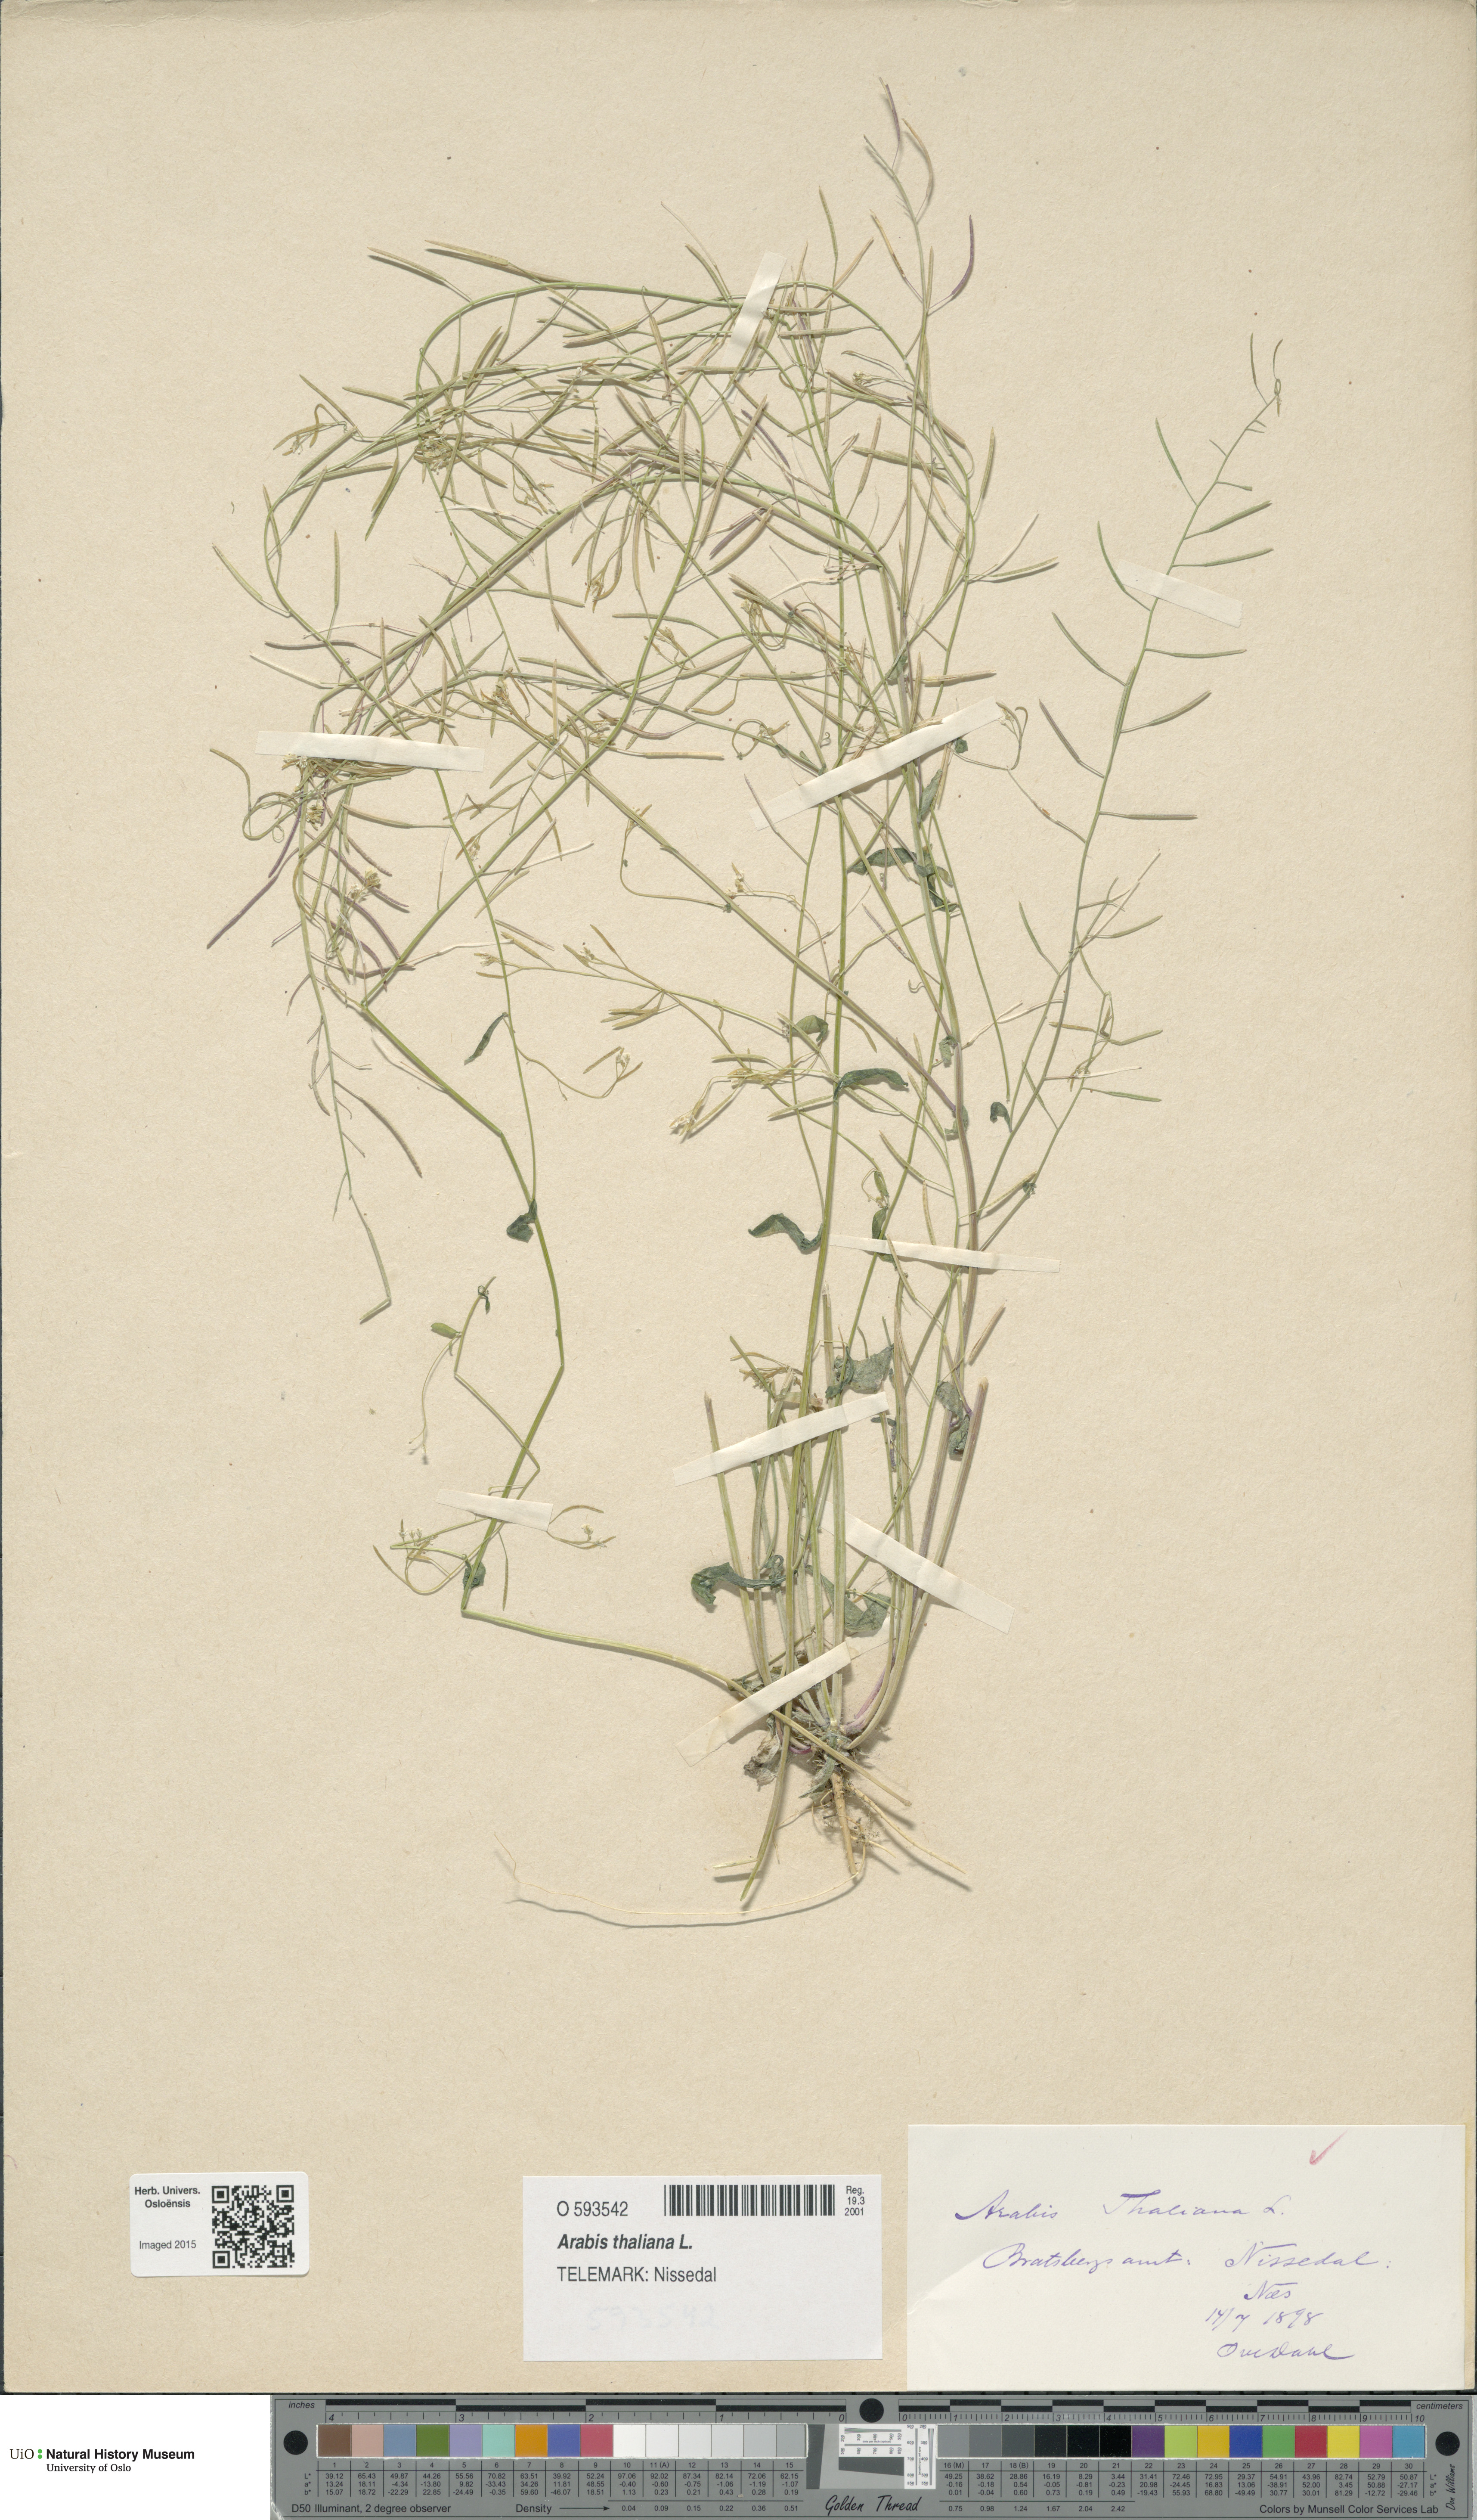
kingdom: Plantae
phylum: Tracheophyta
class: Magnoliopsida
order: Brassicales
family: Brassicaceae
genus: Arabidopsis
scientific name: Arabidopsis thaliana
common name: Thale cress
